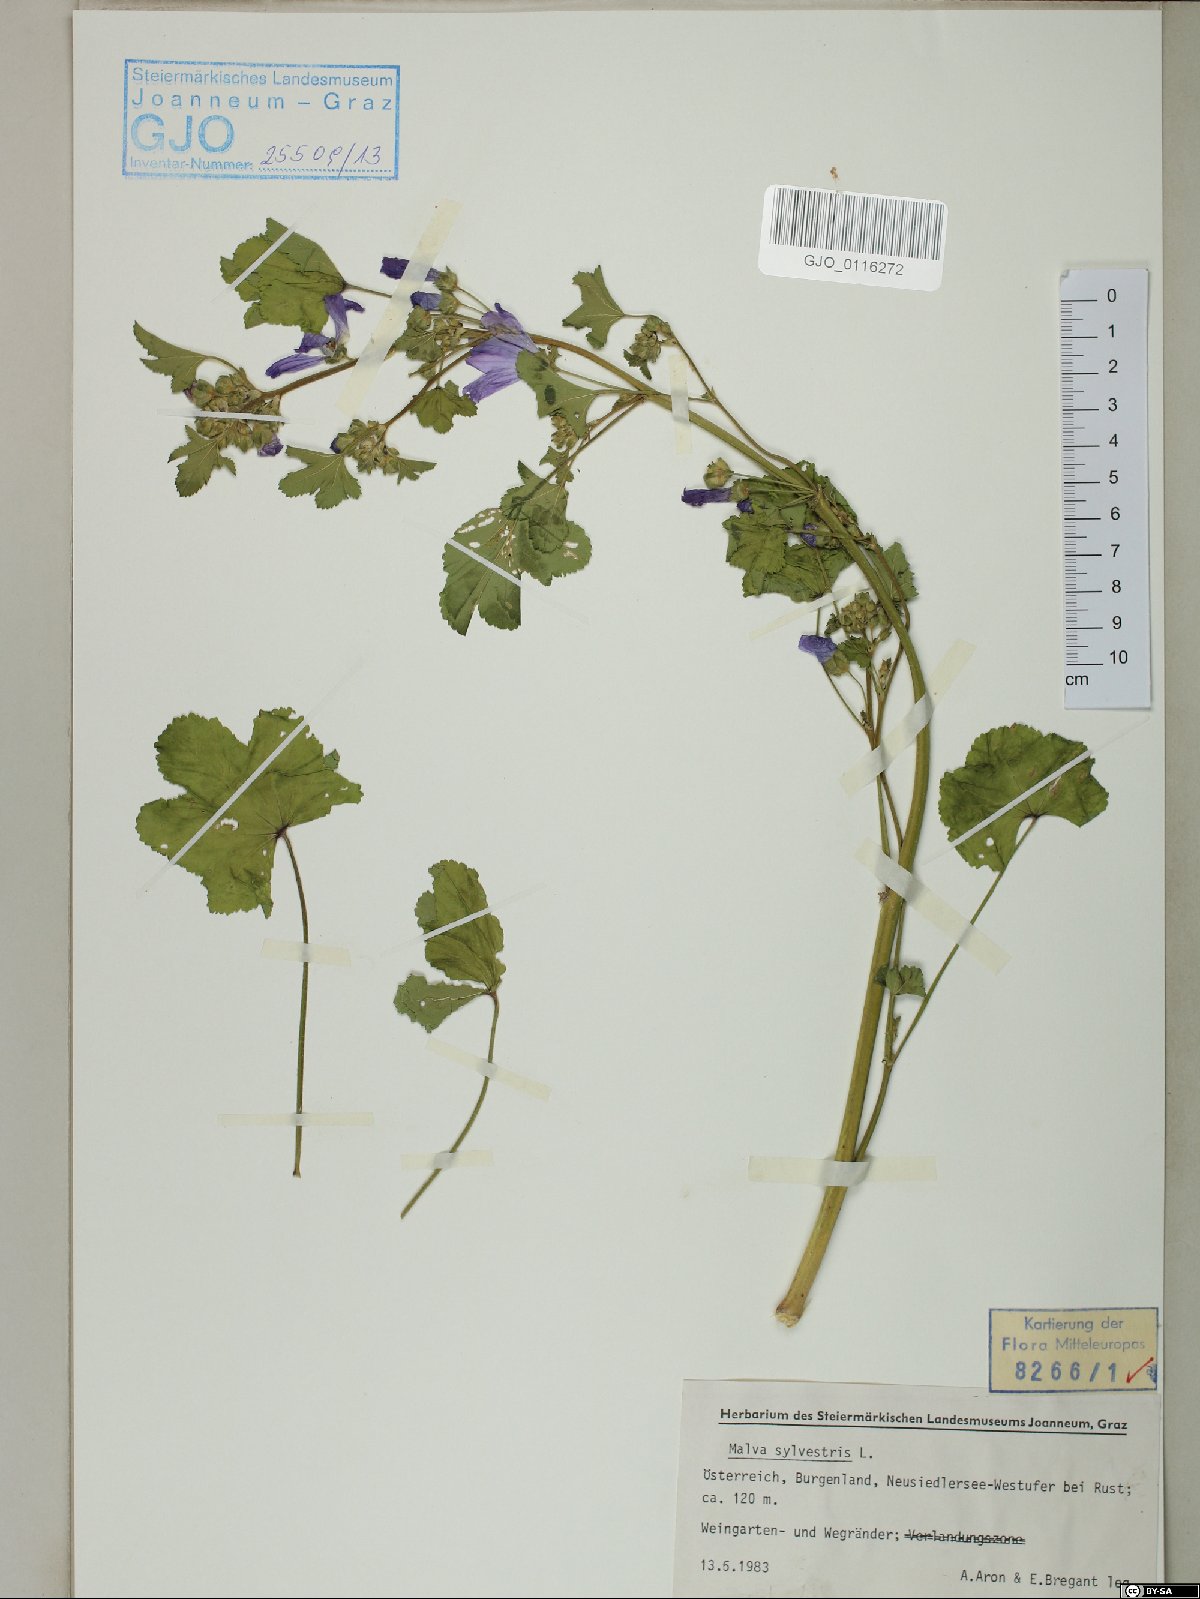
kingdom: Plantae
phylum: Tracheophyta
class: Magnoliopsida
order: Malvales
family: Malvaceae
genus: Malva
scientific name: Malva sylvestris
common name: Common mallow
